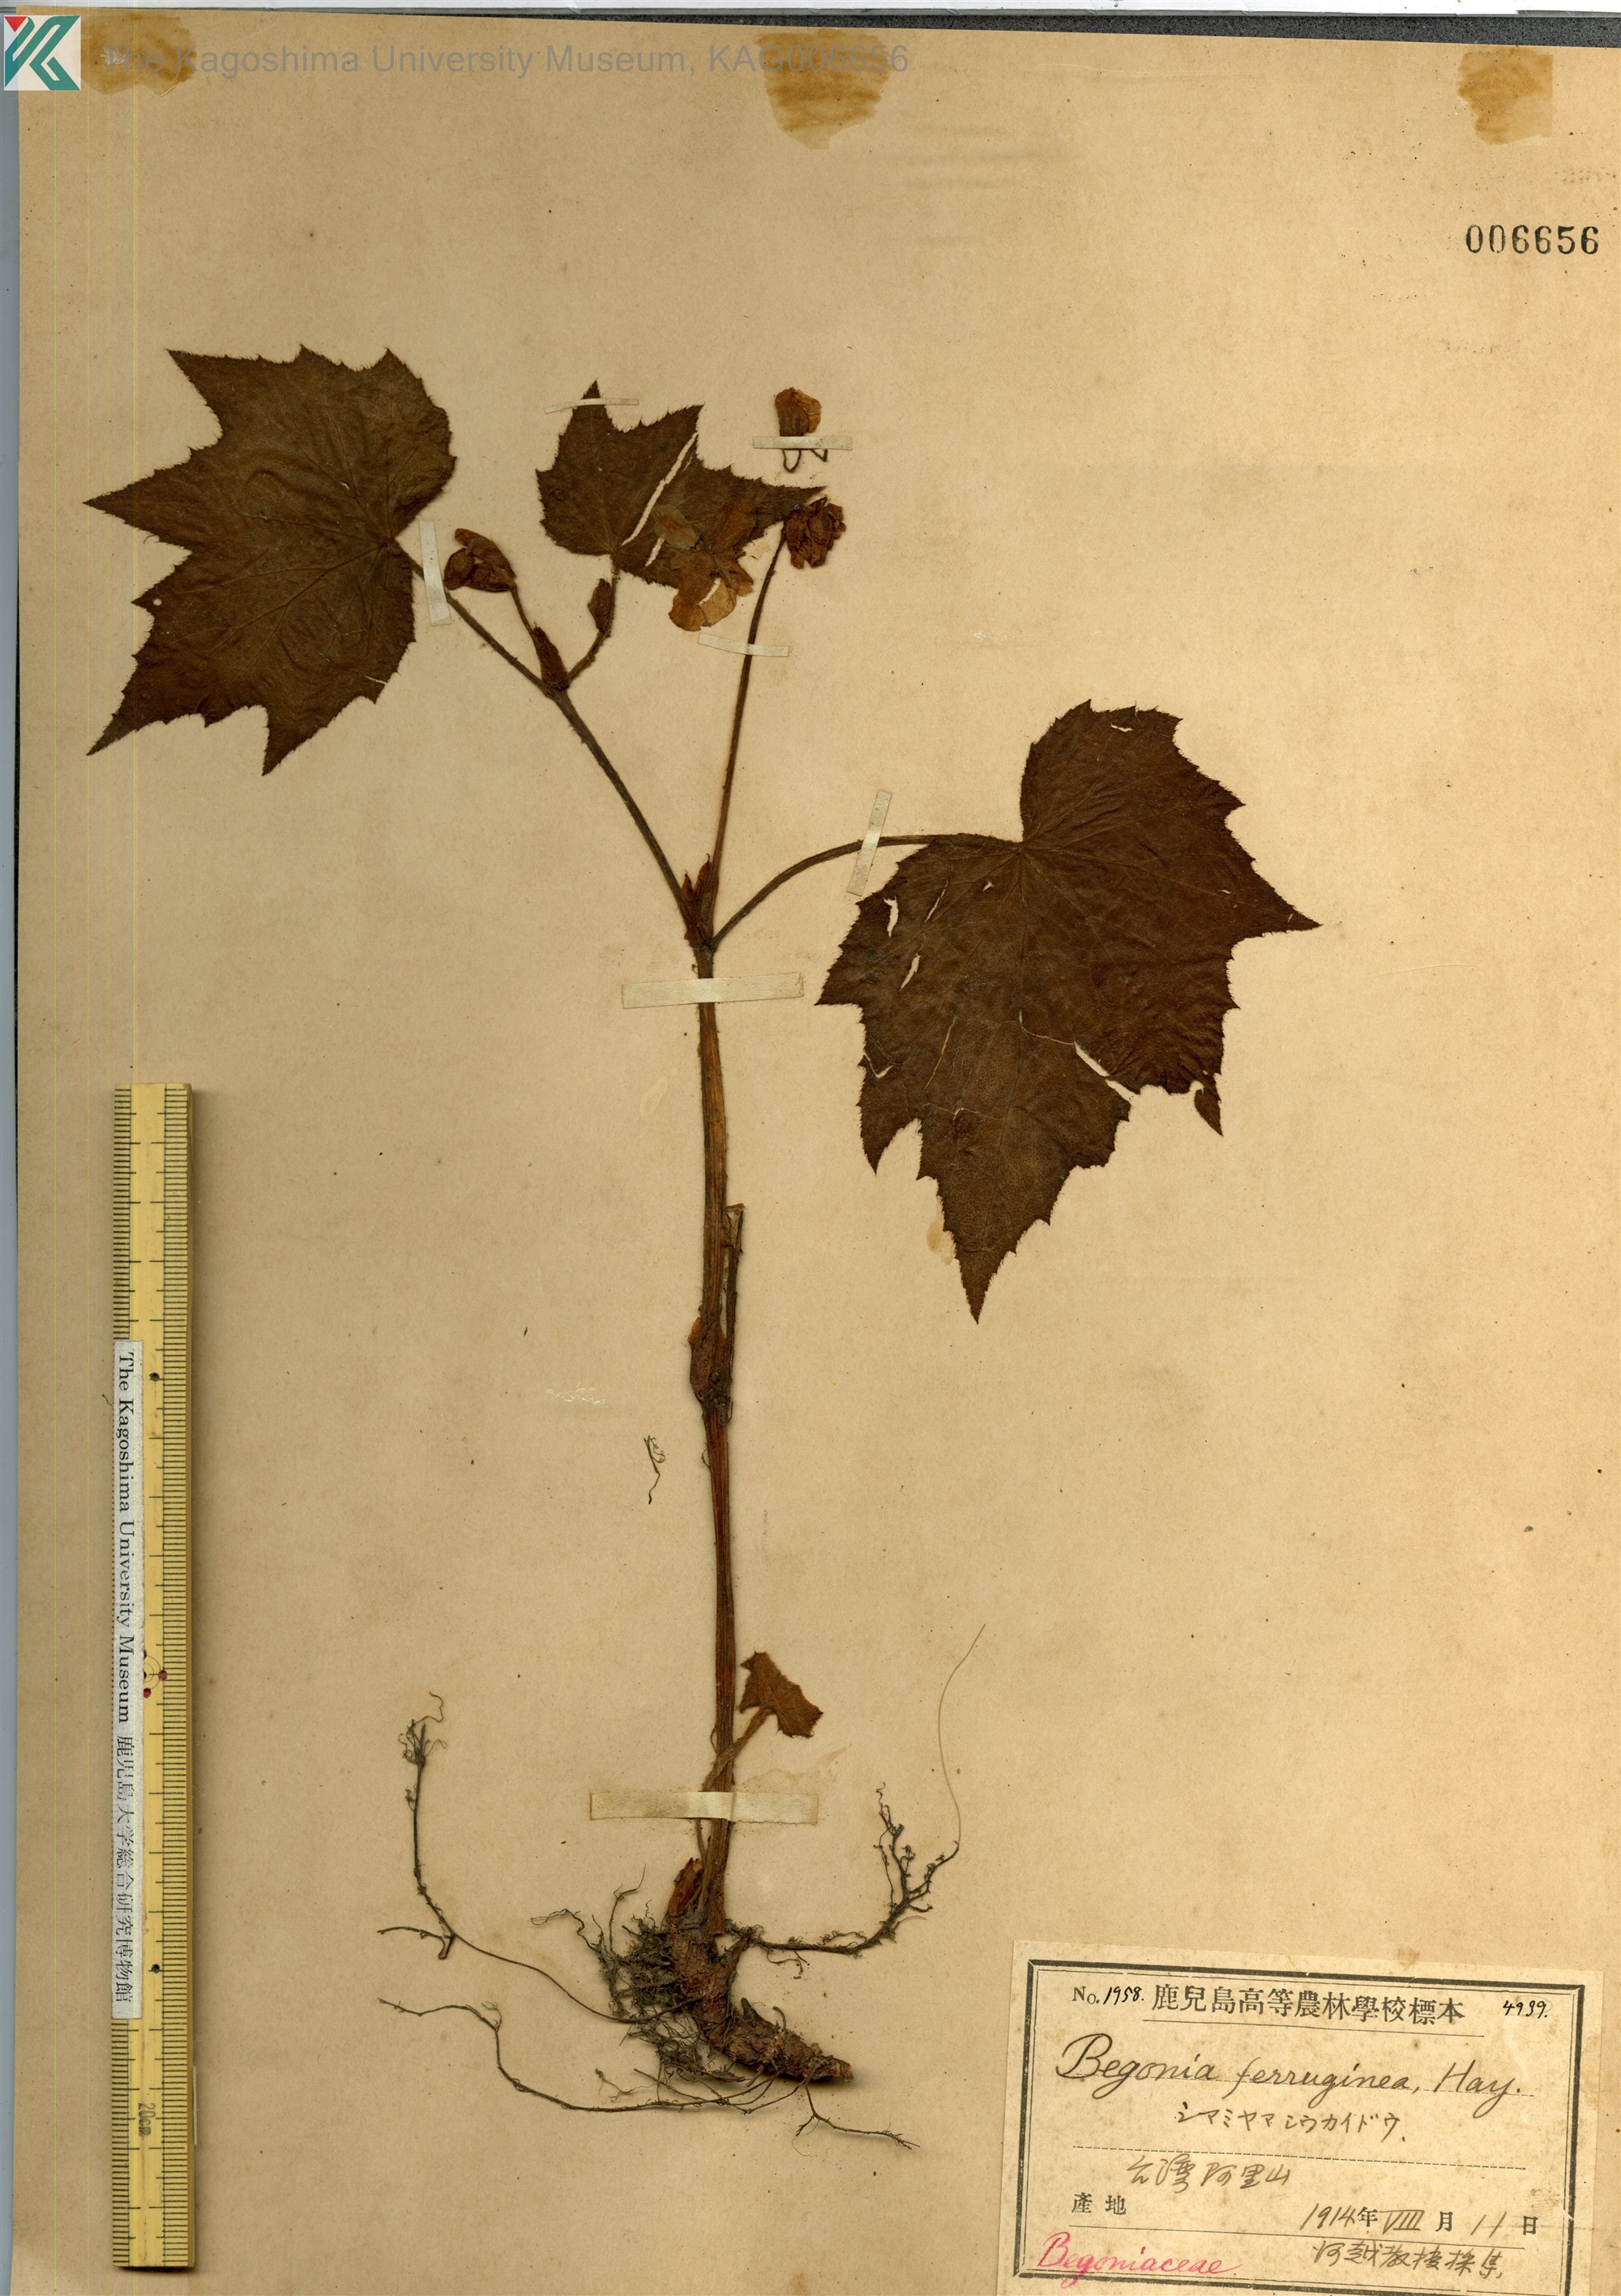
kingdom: Plantae
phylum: Tracheophyta
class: Magnoliopsida
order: Cucurbitales
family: Begoniaceae
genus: Begonia
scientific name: Begonia ferruginea
